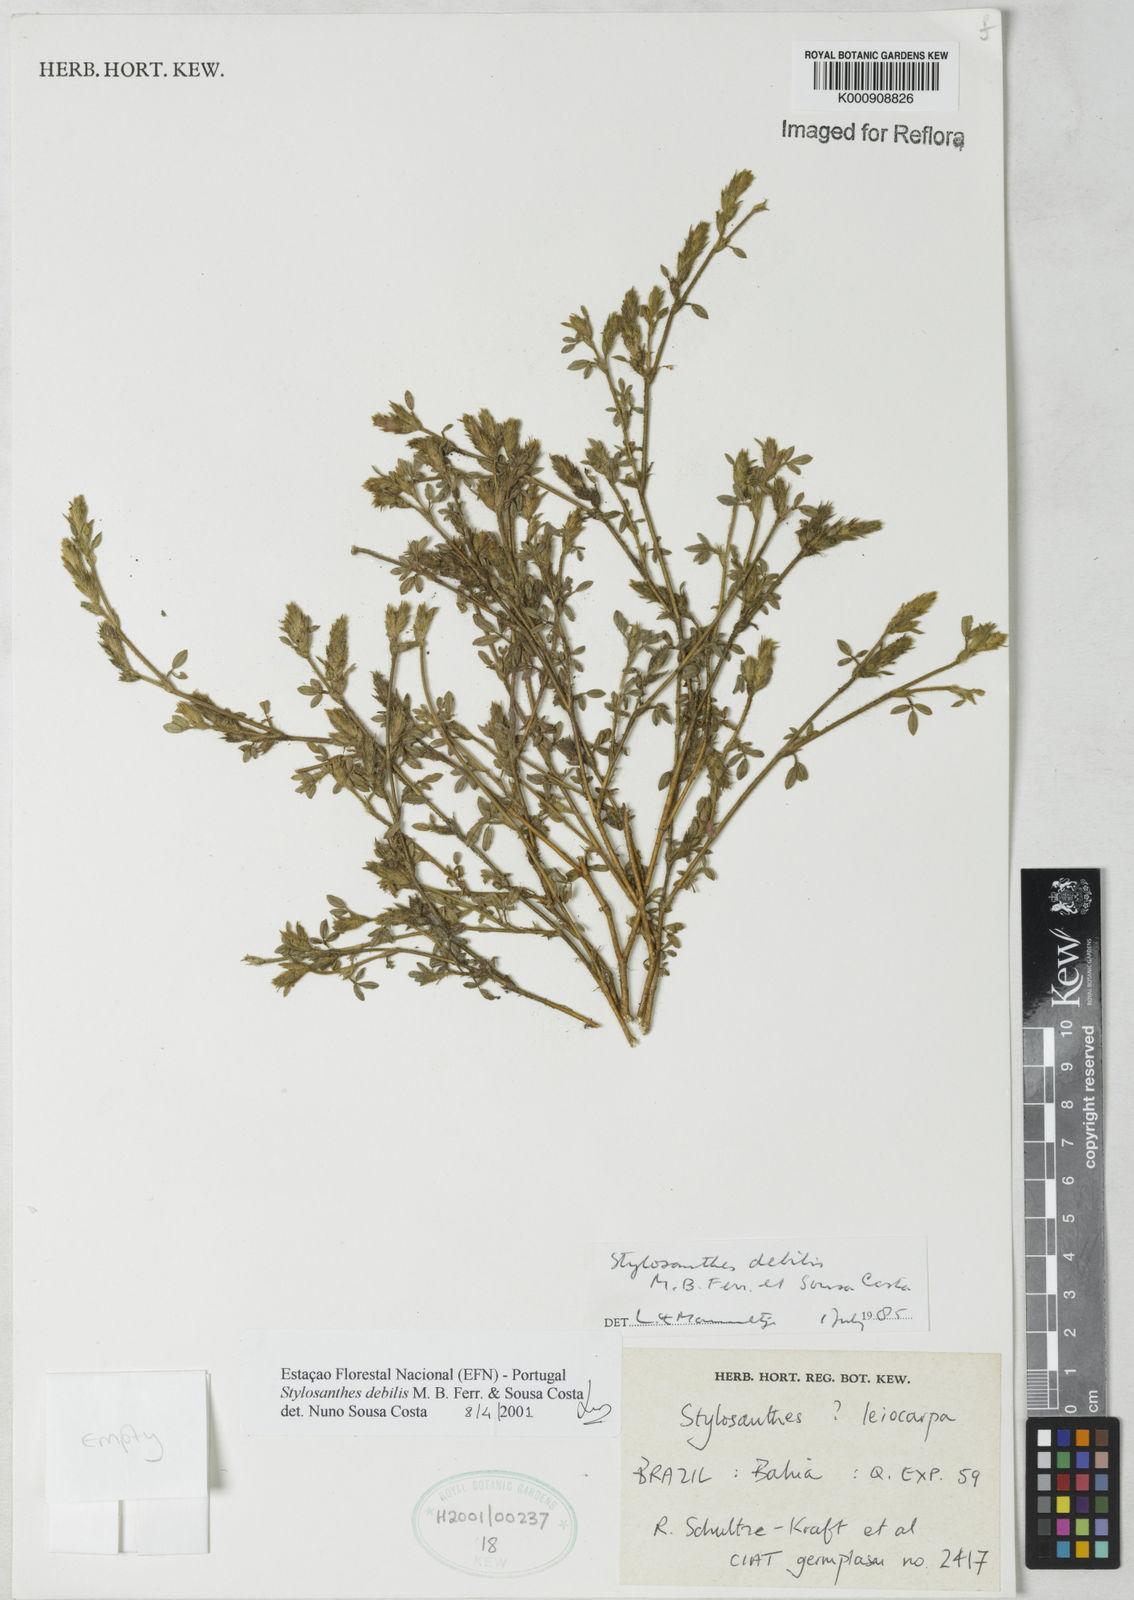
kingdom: Plantae
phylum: Tracheophyta
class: Magnoliopsida
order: Fabales
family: Fabaceae
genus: Stylosanthes
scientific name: Stylosanthes viscosa
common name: Viscid pencil-flower
